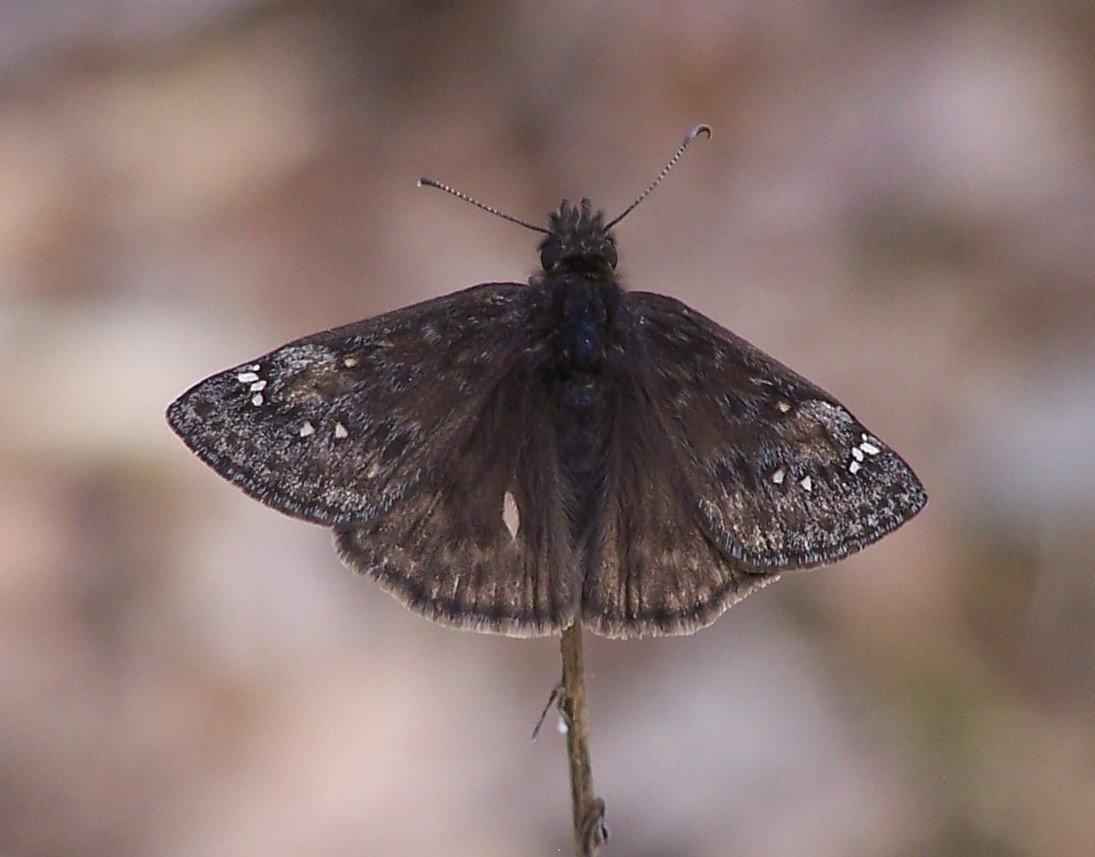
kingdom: Animalia
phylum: Arthropoda
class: Insecta
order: Lepidoptera
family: Hesperiidae
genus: Gesta
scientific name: Gesta
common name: Juvenal's Duskywing
